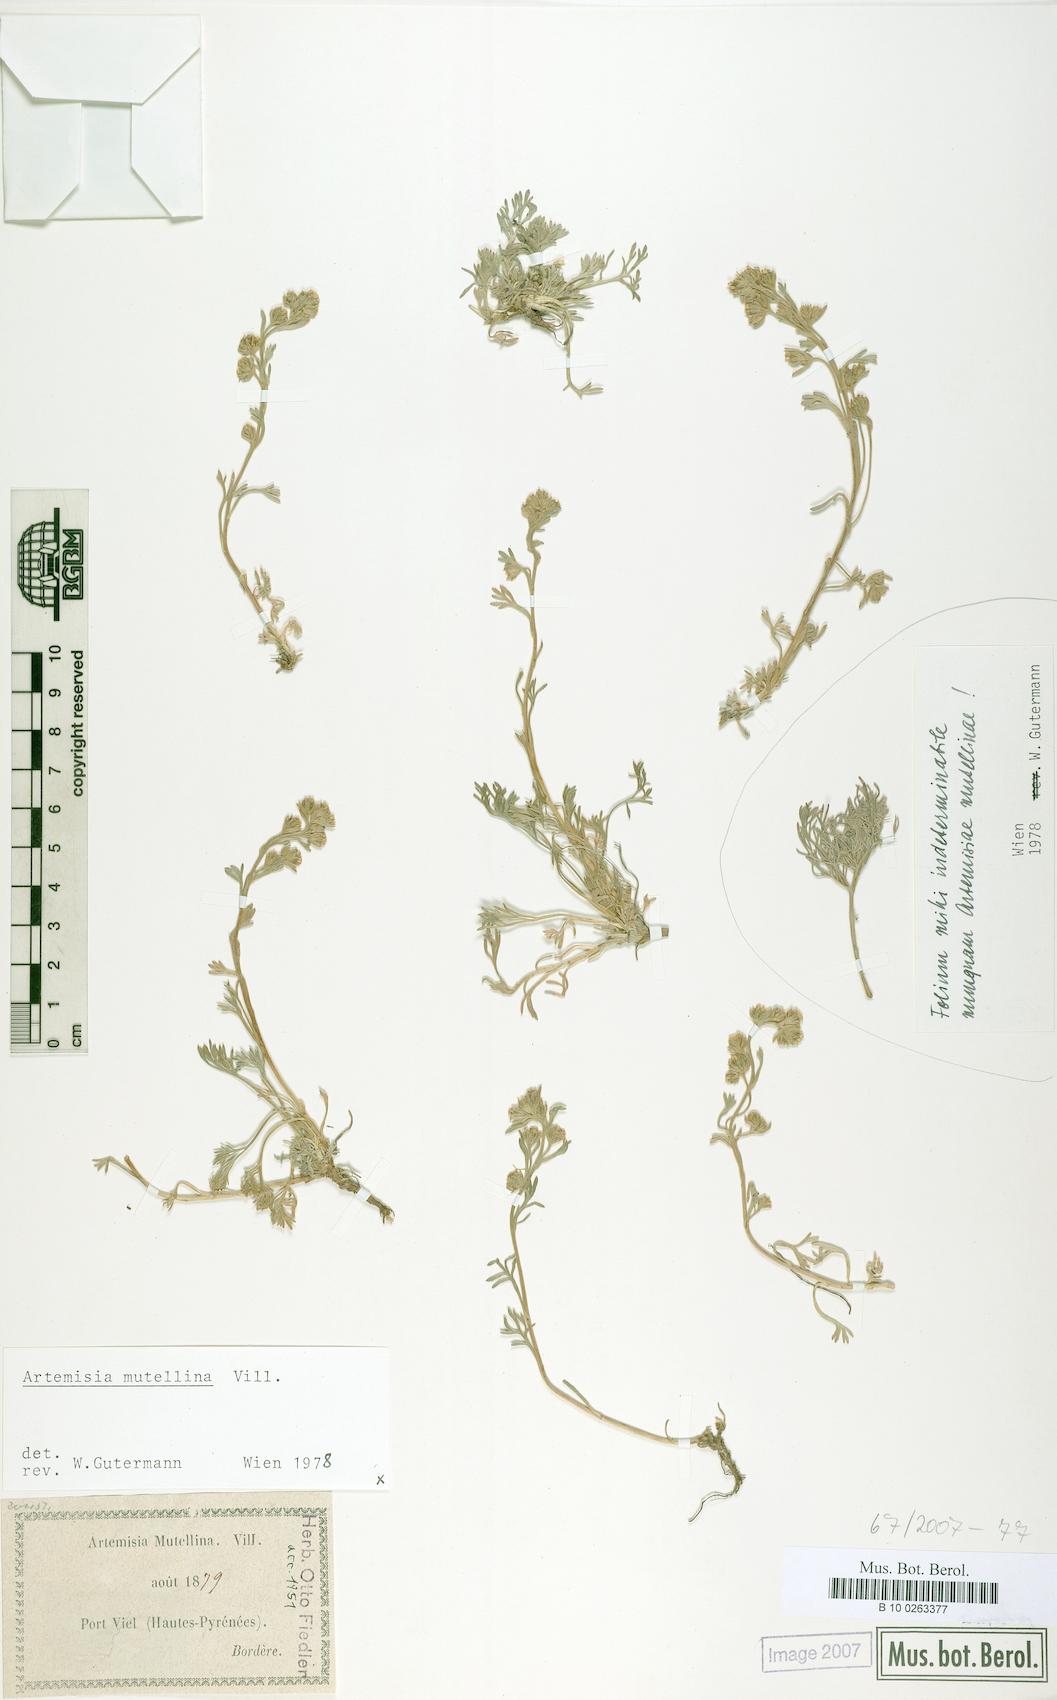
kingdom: Plantae
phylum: Tracheophyta
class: Magnoliopsida
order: Asterales
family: Asteraceae
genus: Artemisia
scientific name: Artemisia mutellina
